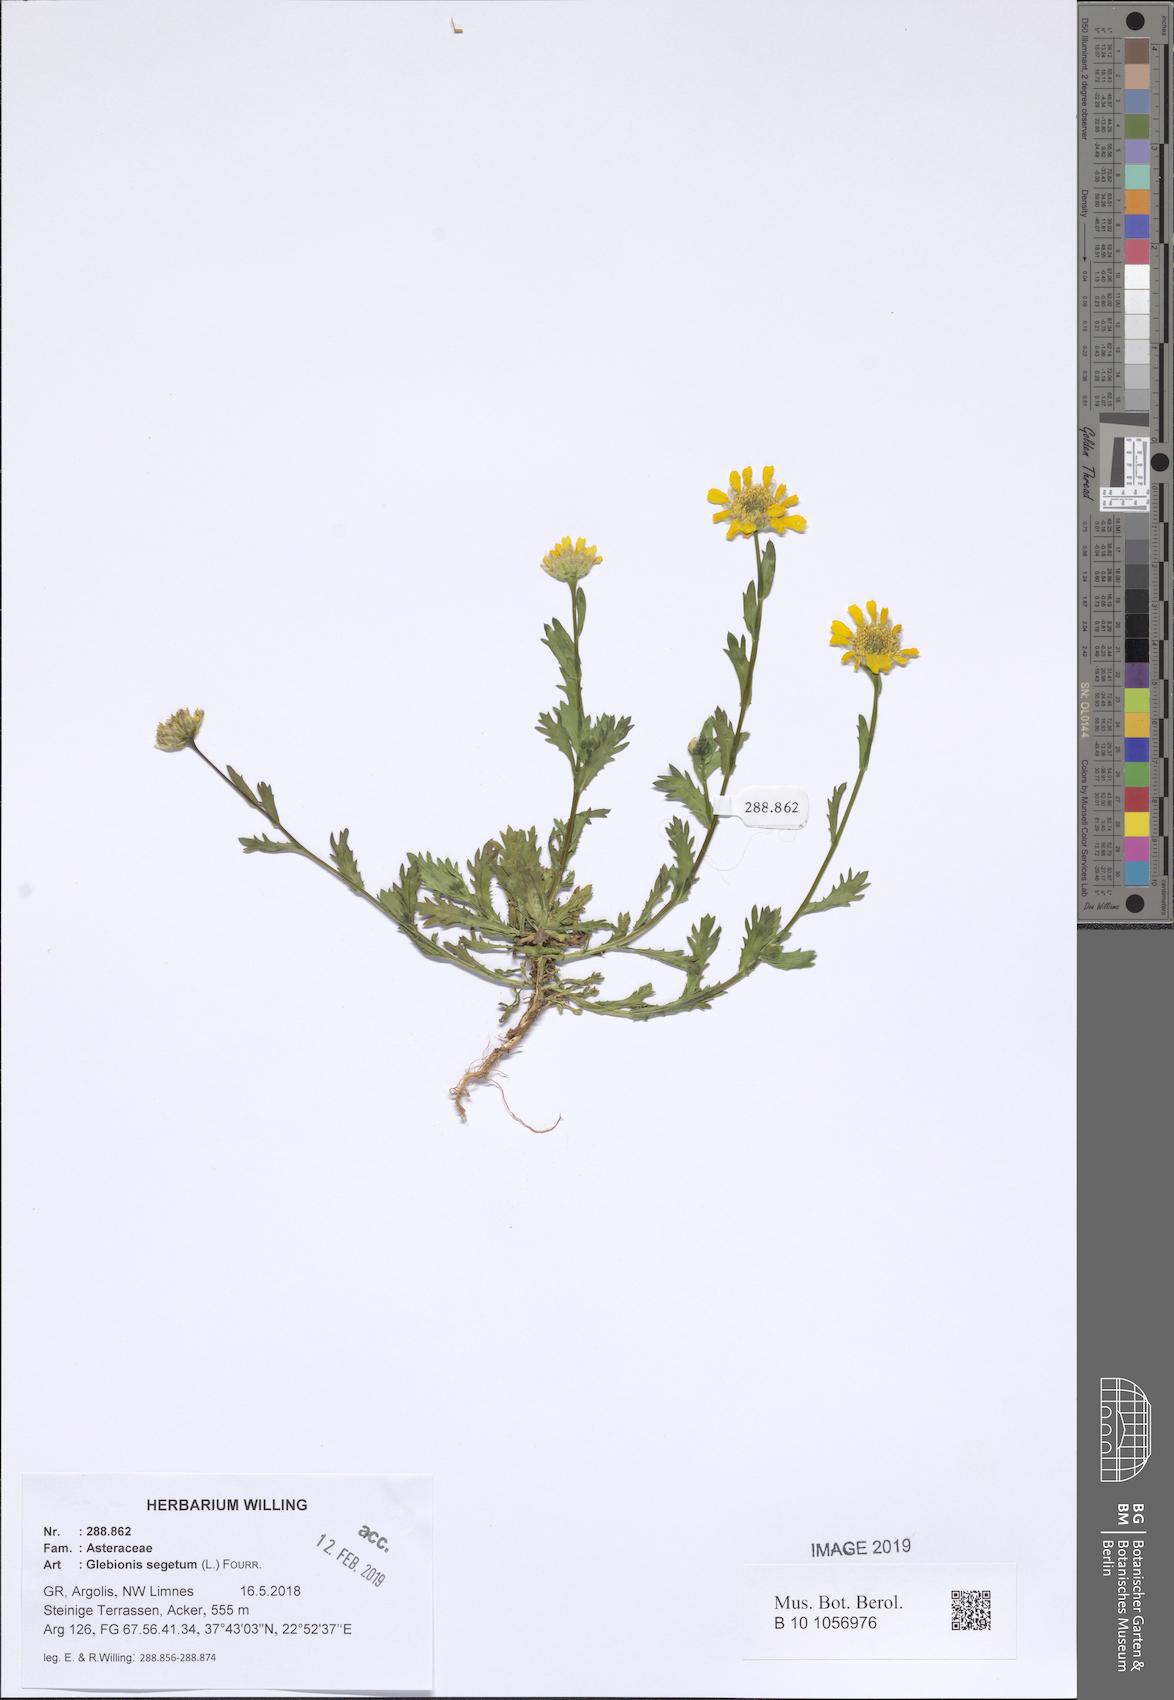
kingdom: Plantae
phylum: Tracheophyta
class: Magnoliopsida
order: Asterales
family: Asteraceae
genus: Glebionis
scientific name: Glebionis segetum
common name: Corndaisy
